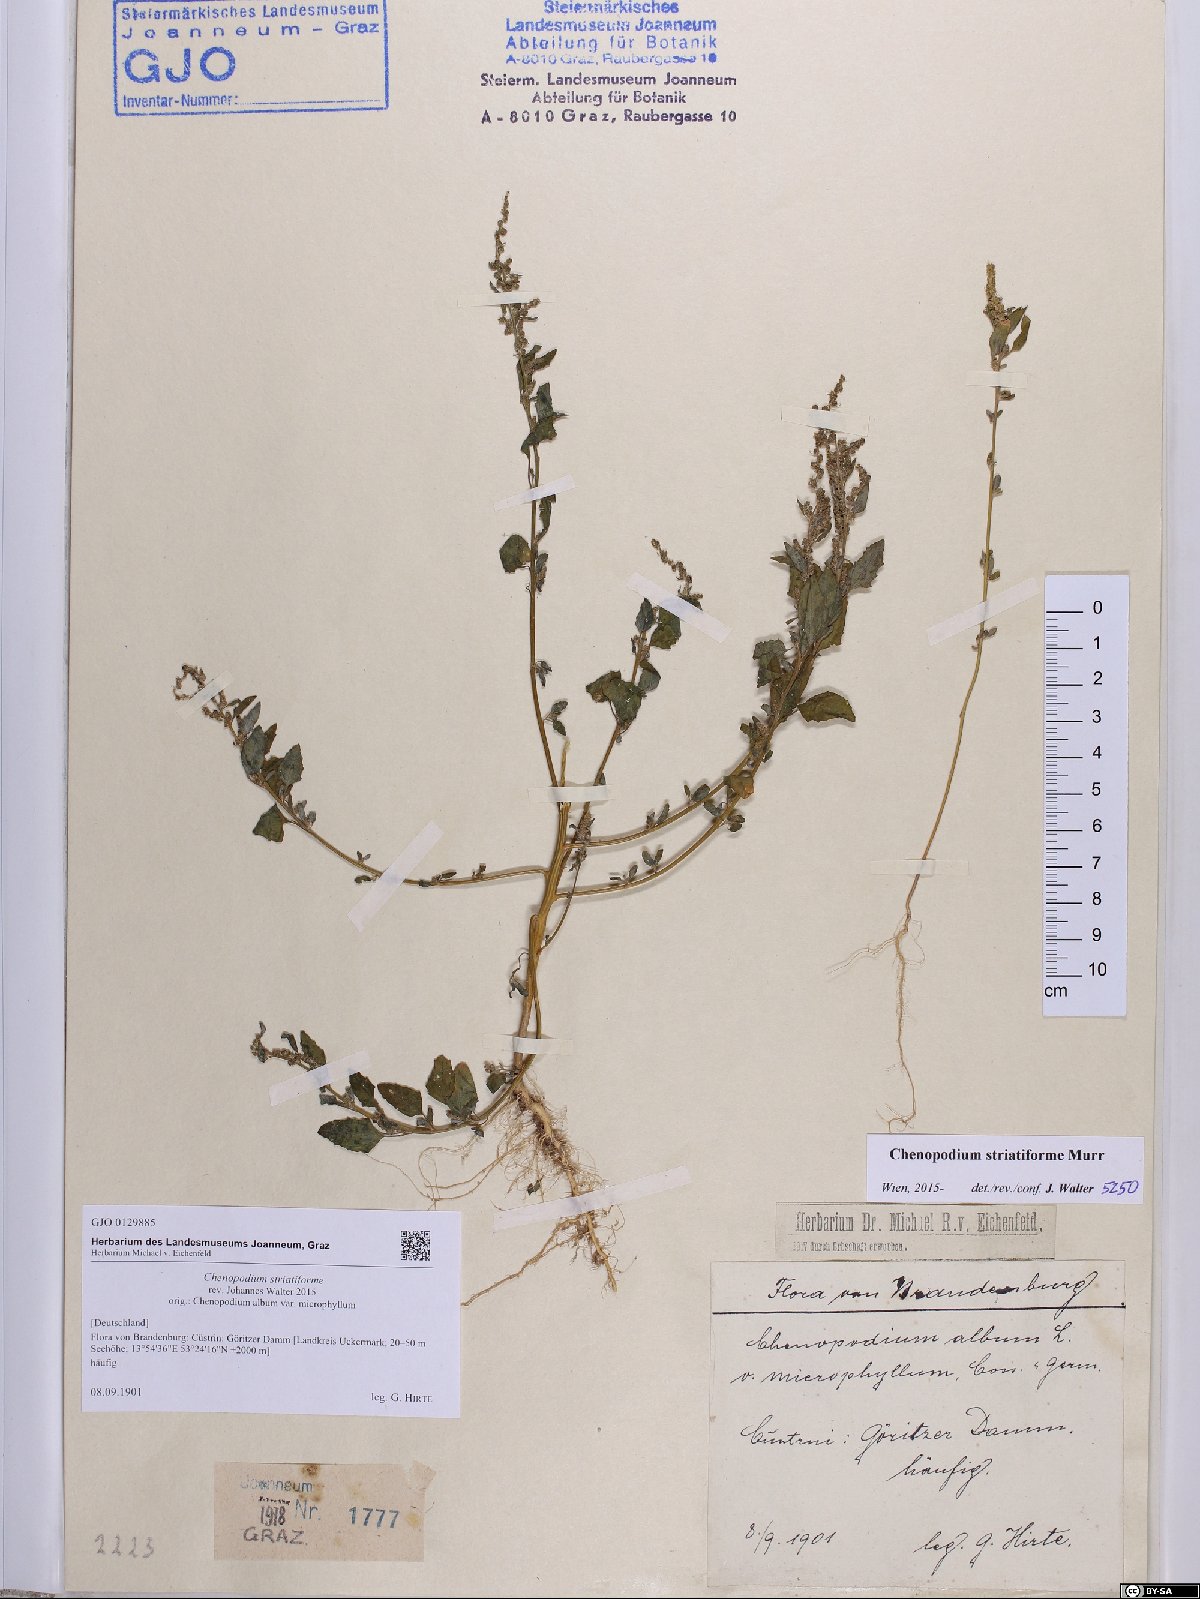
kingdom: Plantae
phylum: Tracheophyta
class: Magnoliopsida
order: Caryophyllales
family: Amaranthaceae
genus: Chenopodium
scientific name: Chenopodium striatiforme
